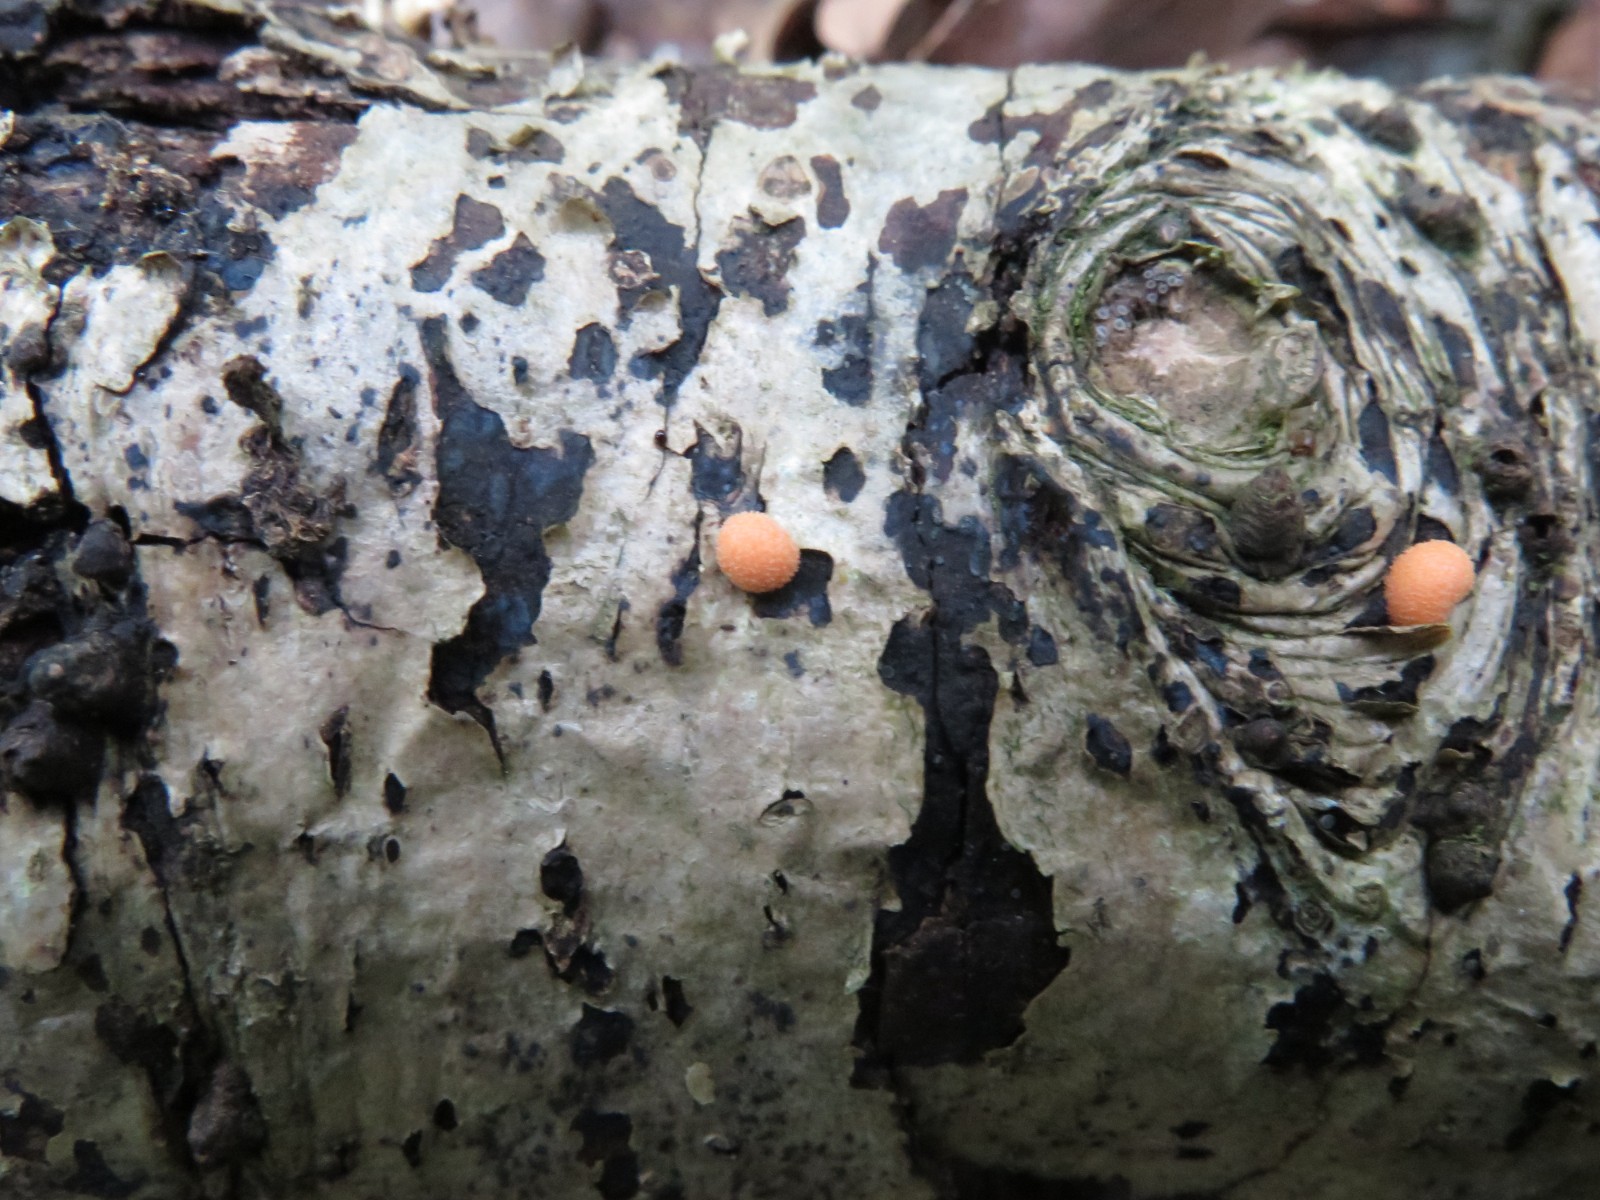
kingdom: Protozoa
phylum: Mycetozoa
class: Myxomycetes
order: Cribrariales
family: Tubiferaceae
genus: Lycogala
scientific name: Lycogala epidendrum
